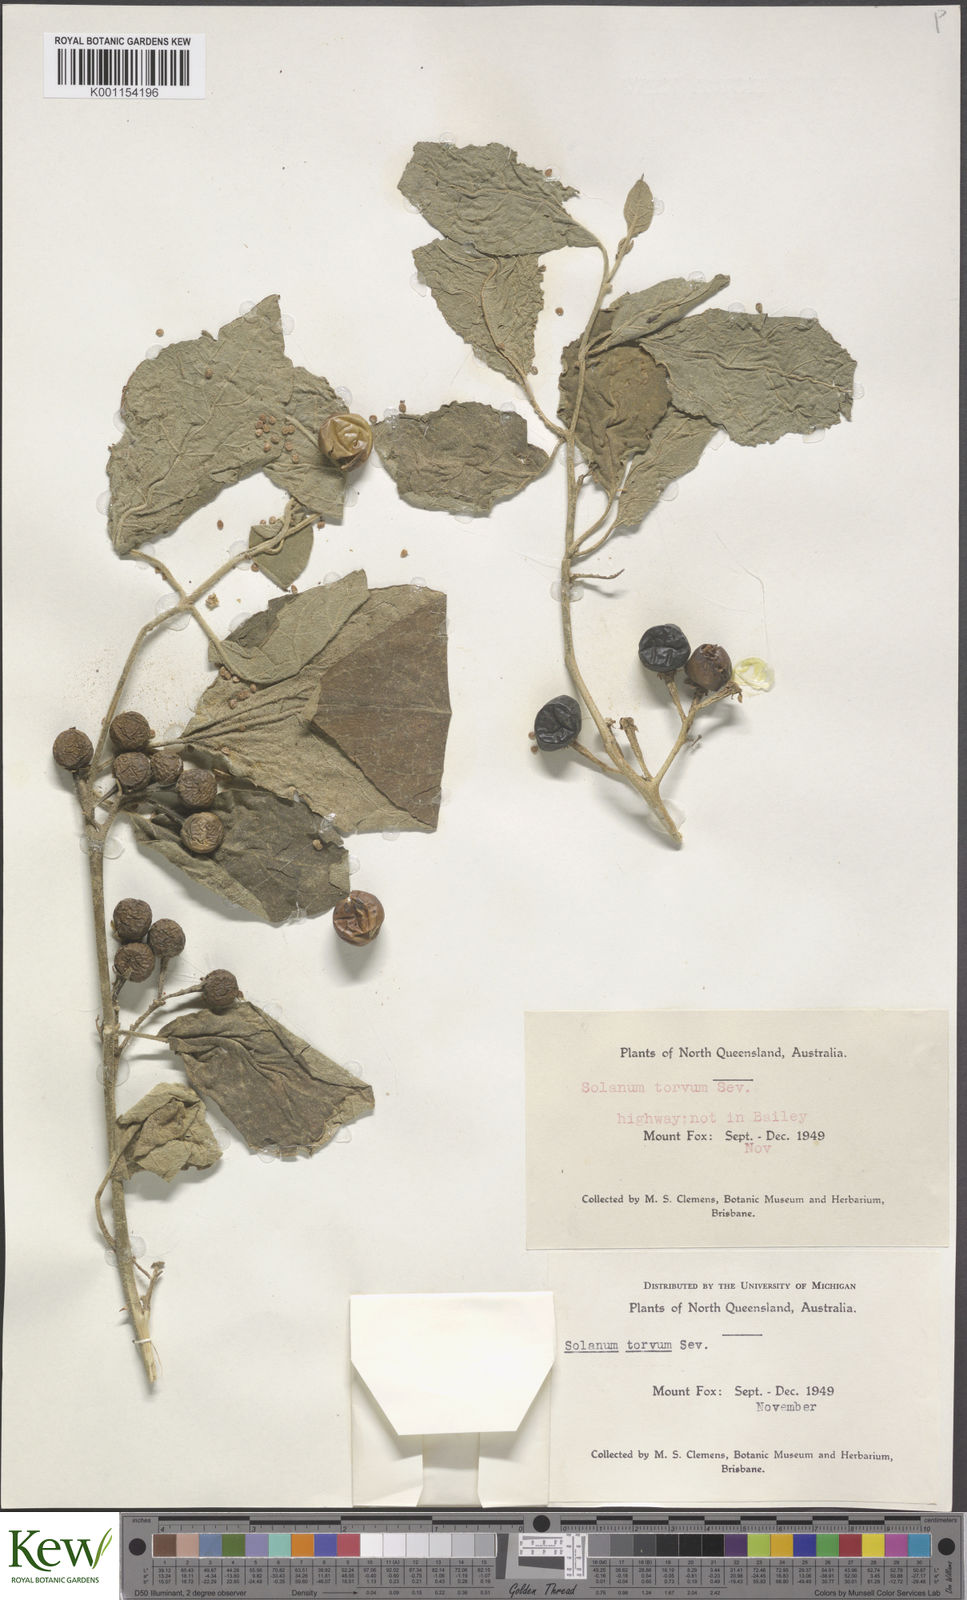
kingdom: Plantae
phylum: Tracheophyta
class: Magnoliopsida
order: Solanales
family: Solanaceae
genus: Solanum
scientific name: Solanum torvum
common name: Turkey berry
